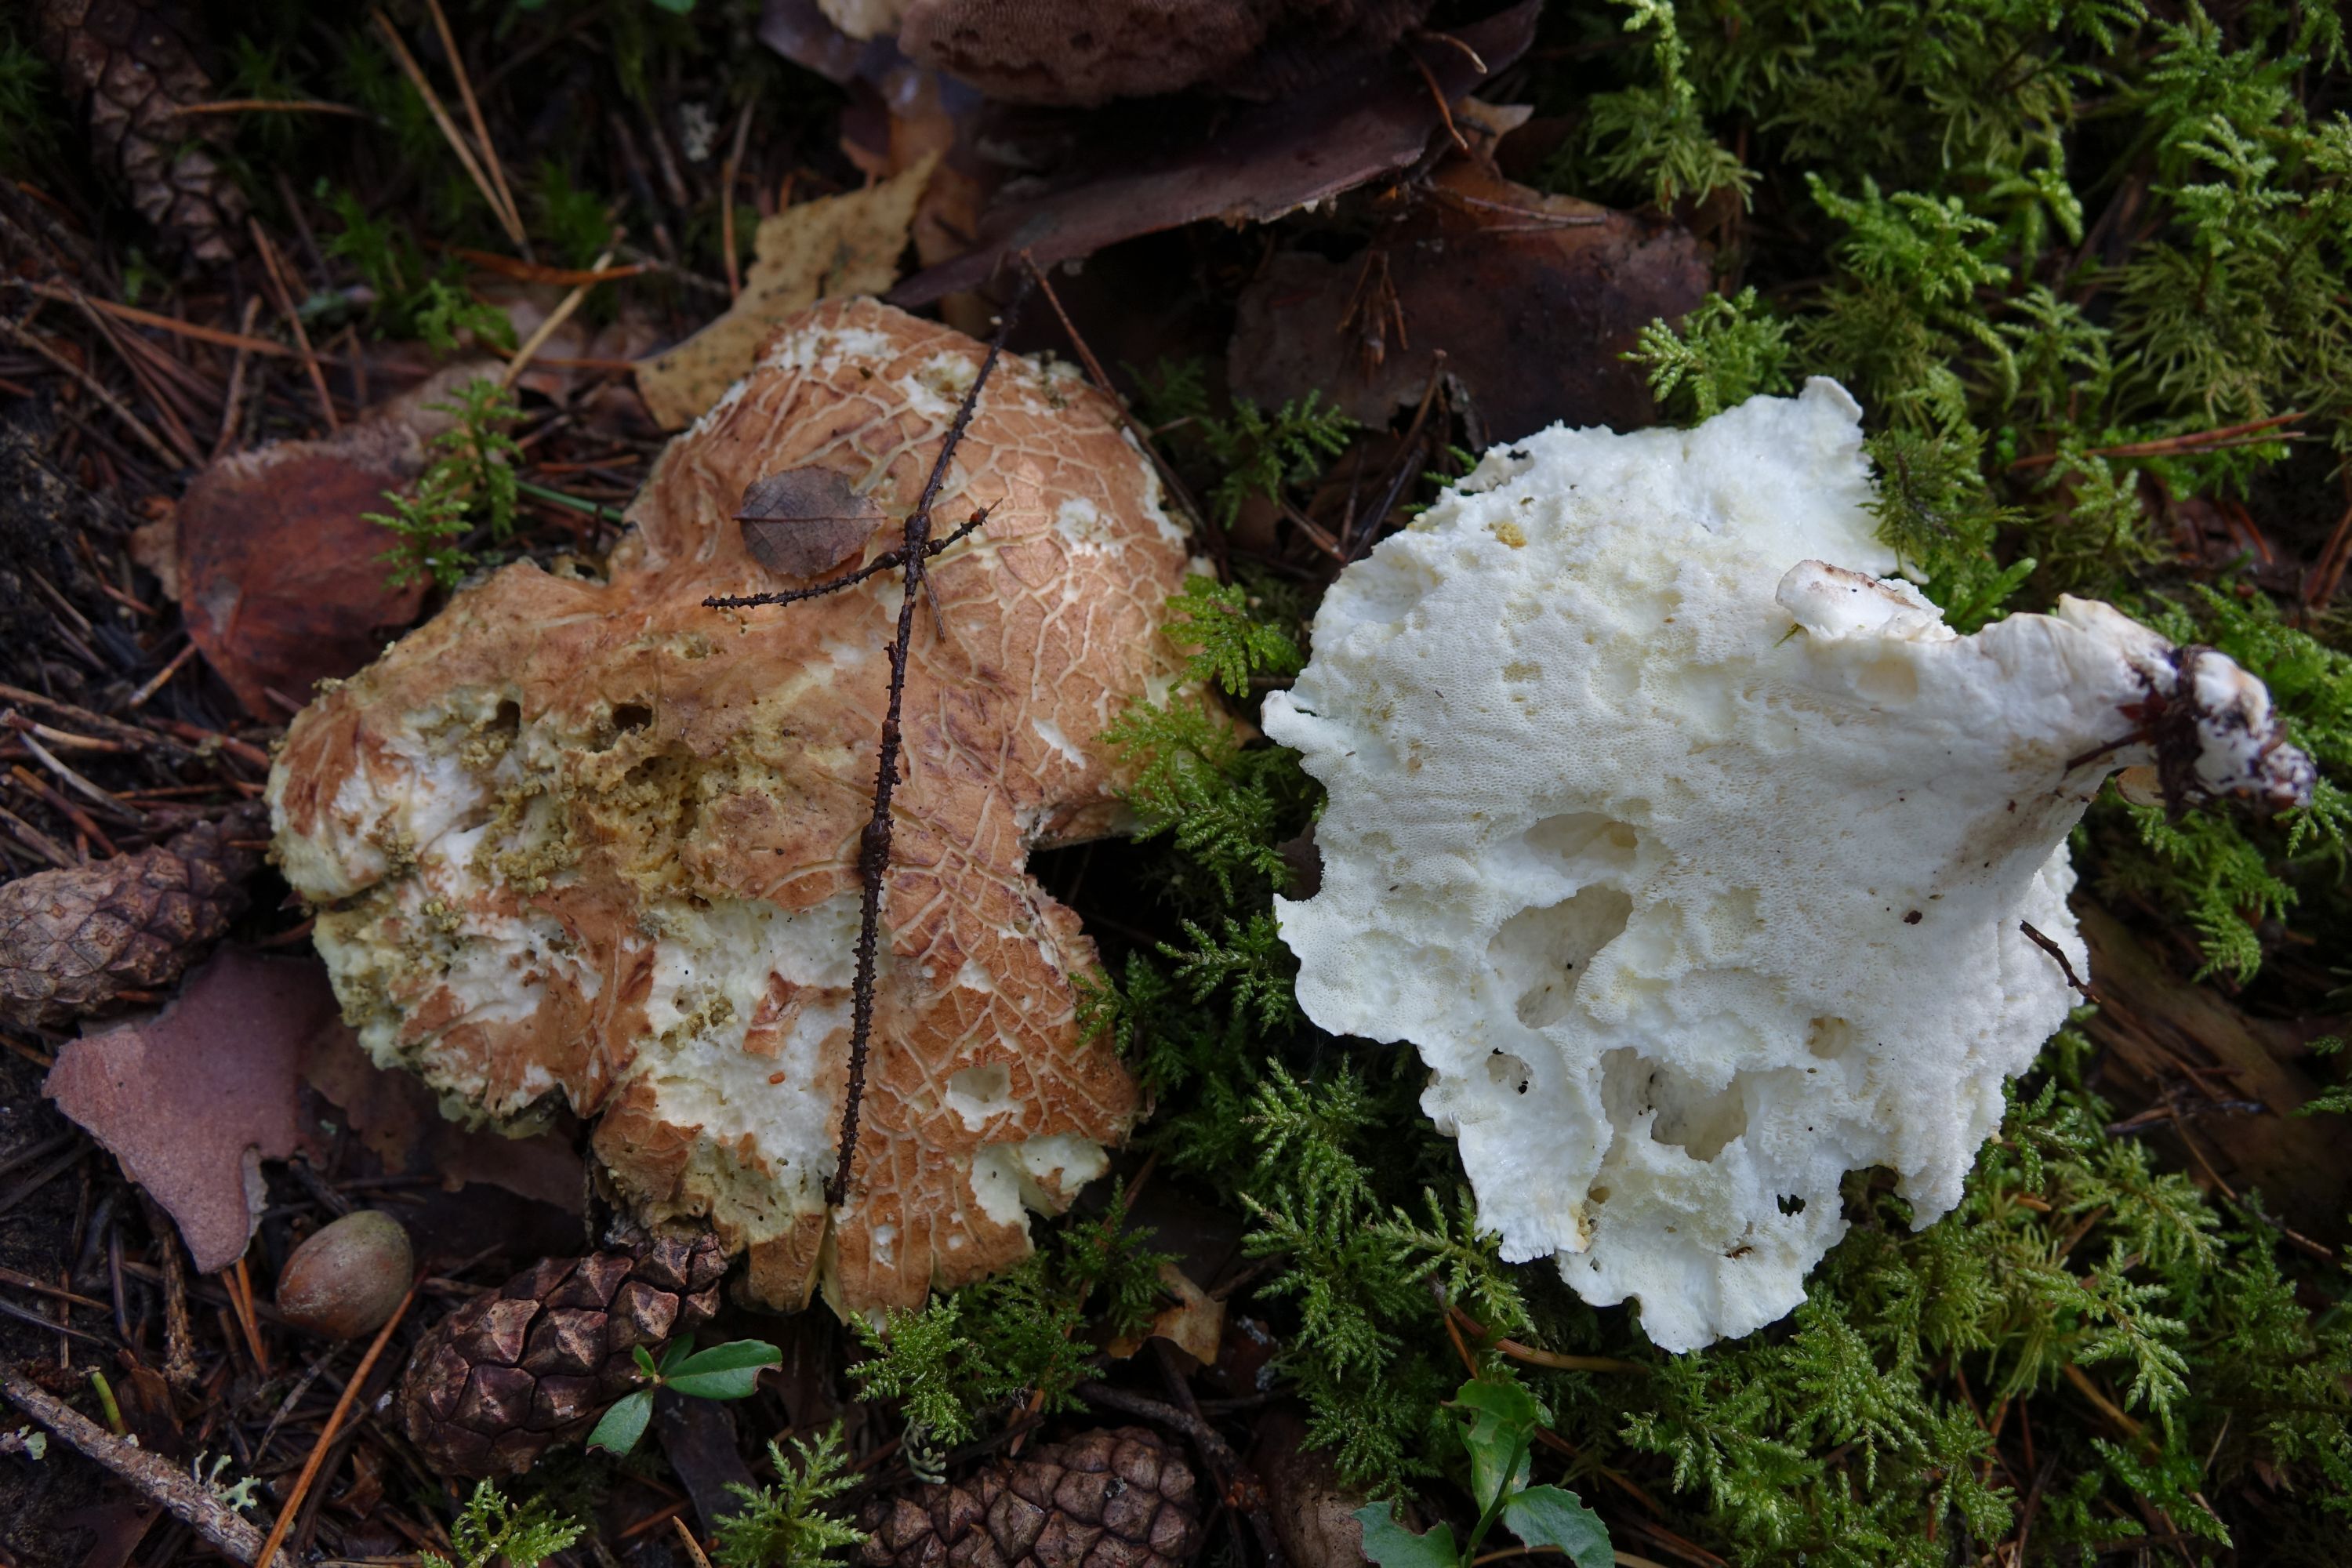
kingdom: Fungi
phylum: Basidiomycota
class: Agaricomycetes
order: Russulales
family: Albatrellaceae
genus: Albatrellus
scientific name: Albatrellus ovinus
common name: Forest lamb
